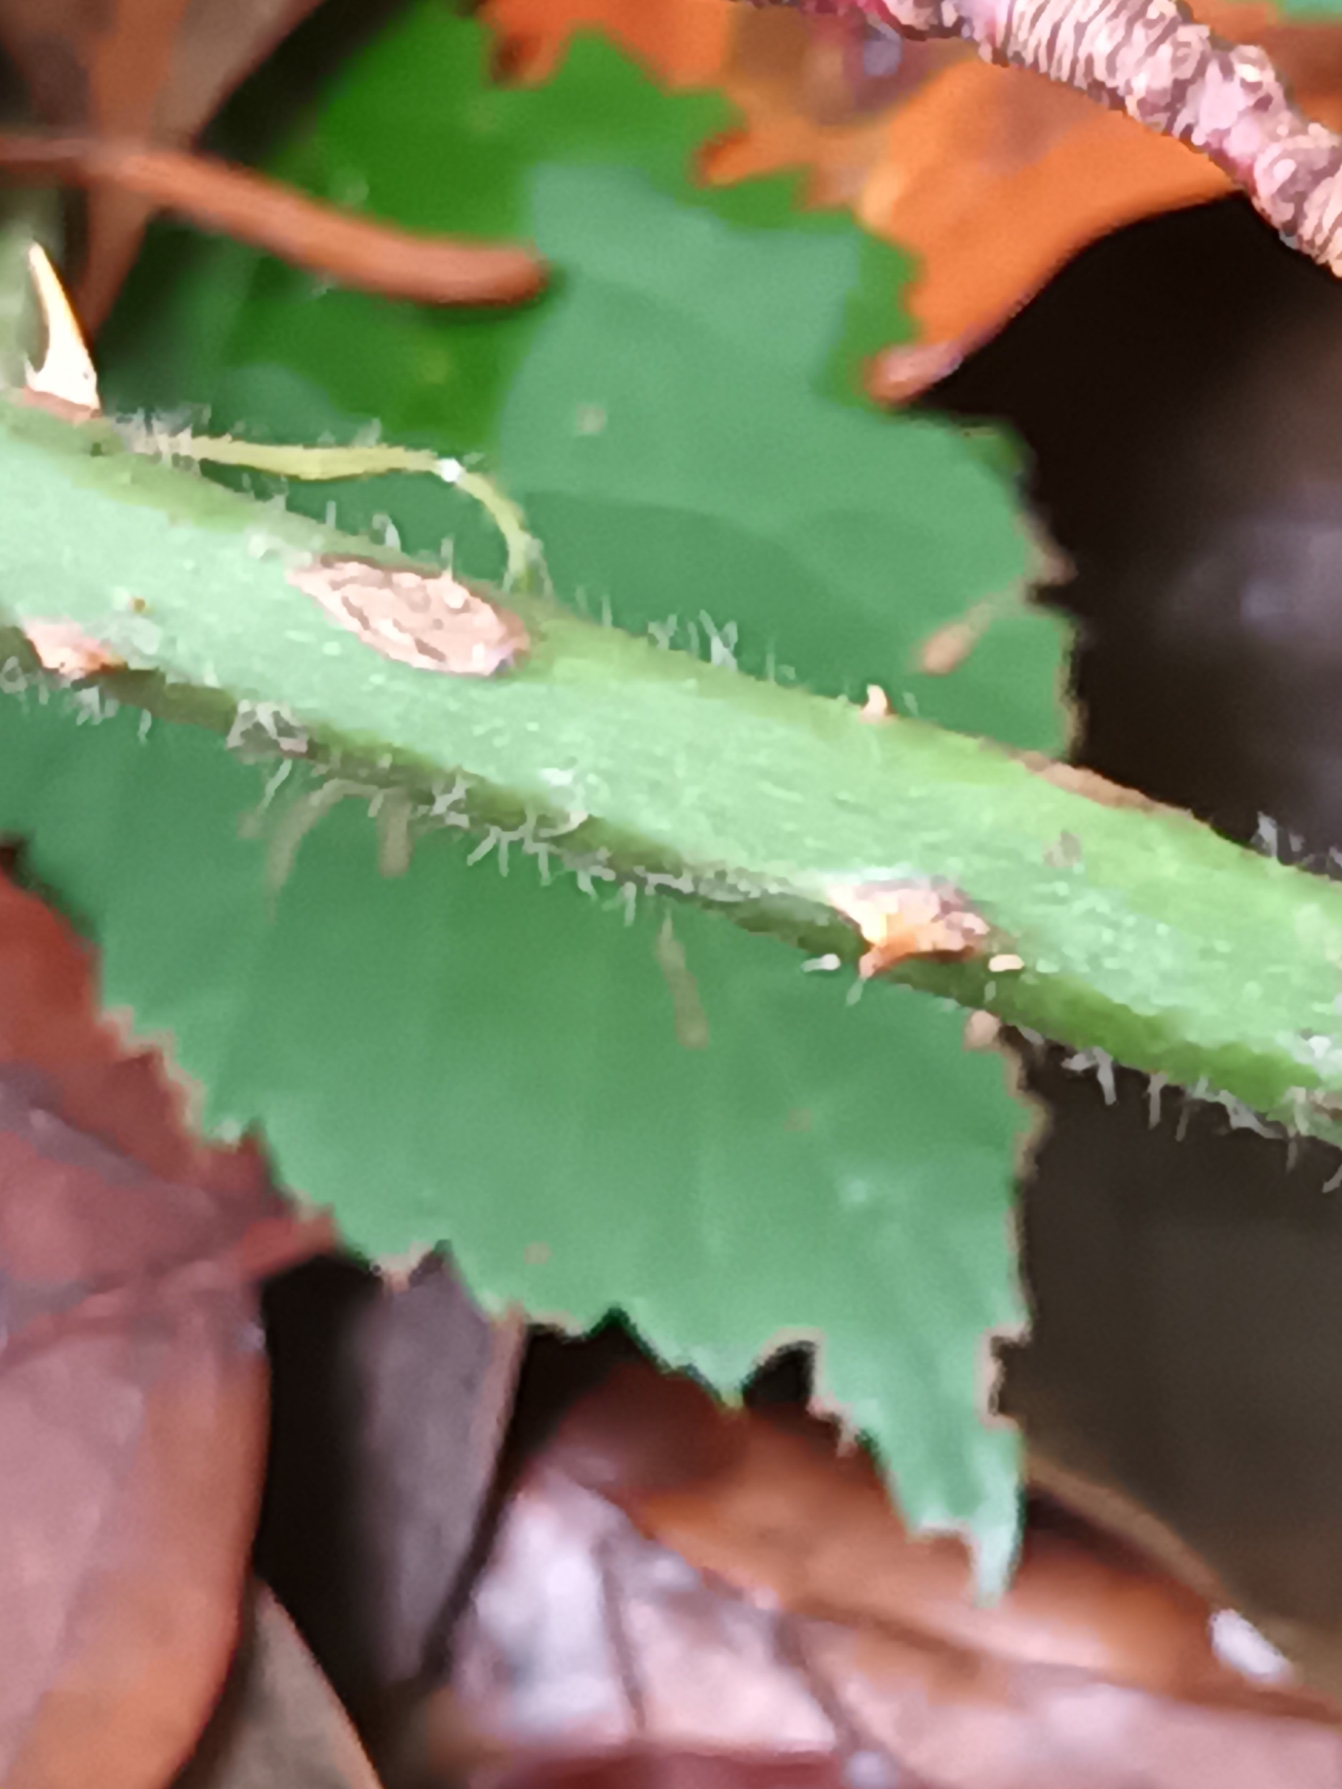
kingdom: Plantae
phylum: Tracheophyta
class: Magnoliopsida
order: Rosales
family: Rosaceae
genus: Rubus
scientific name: Rubus silvaticus
